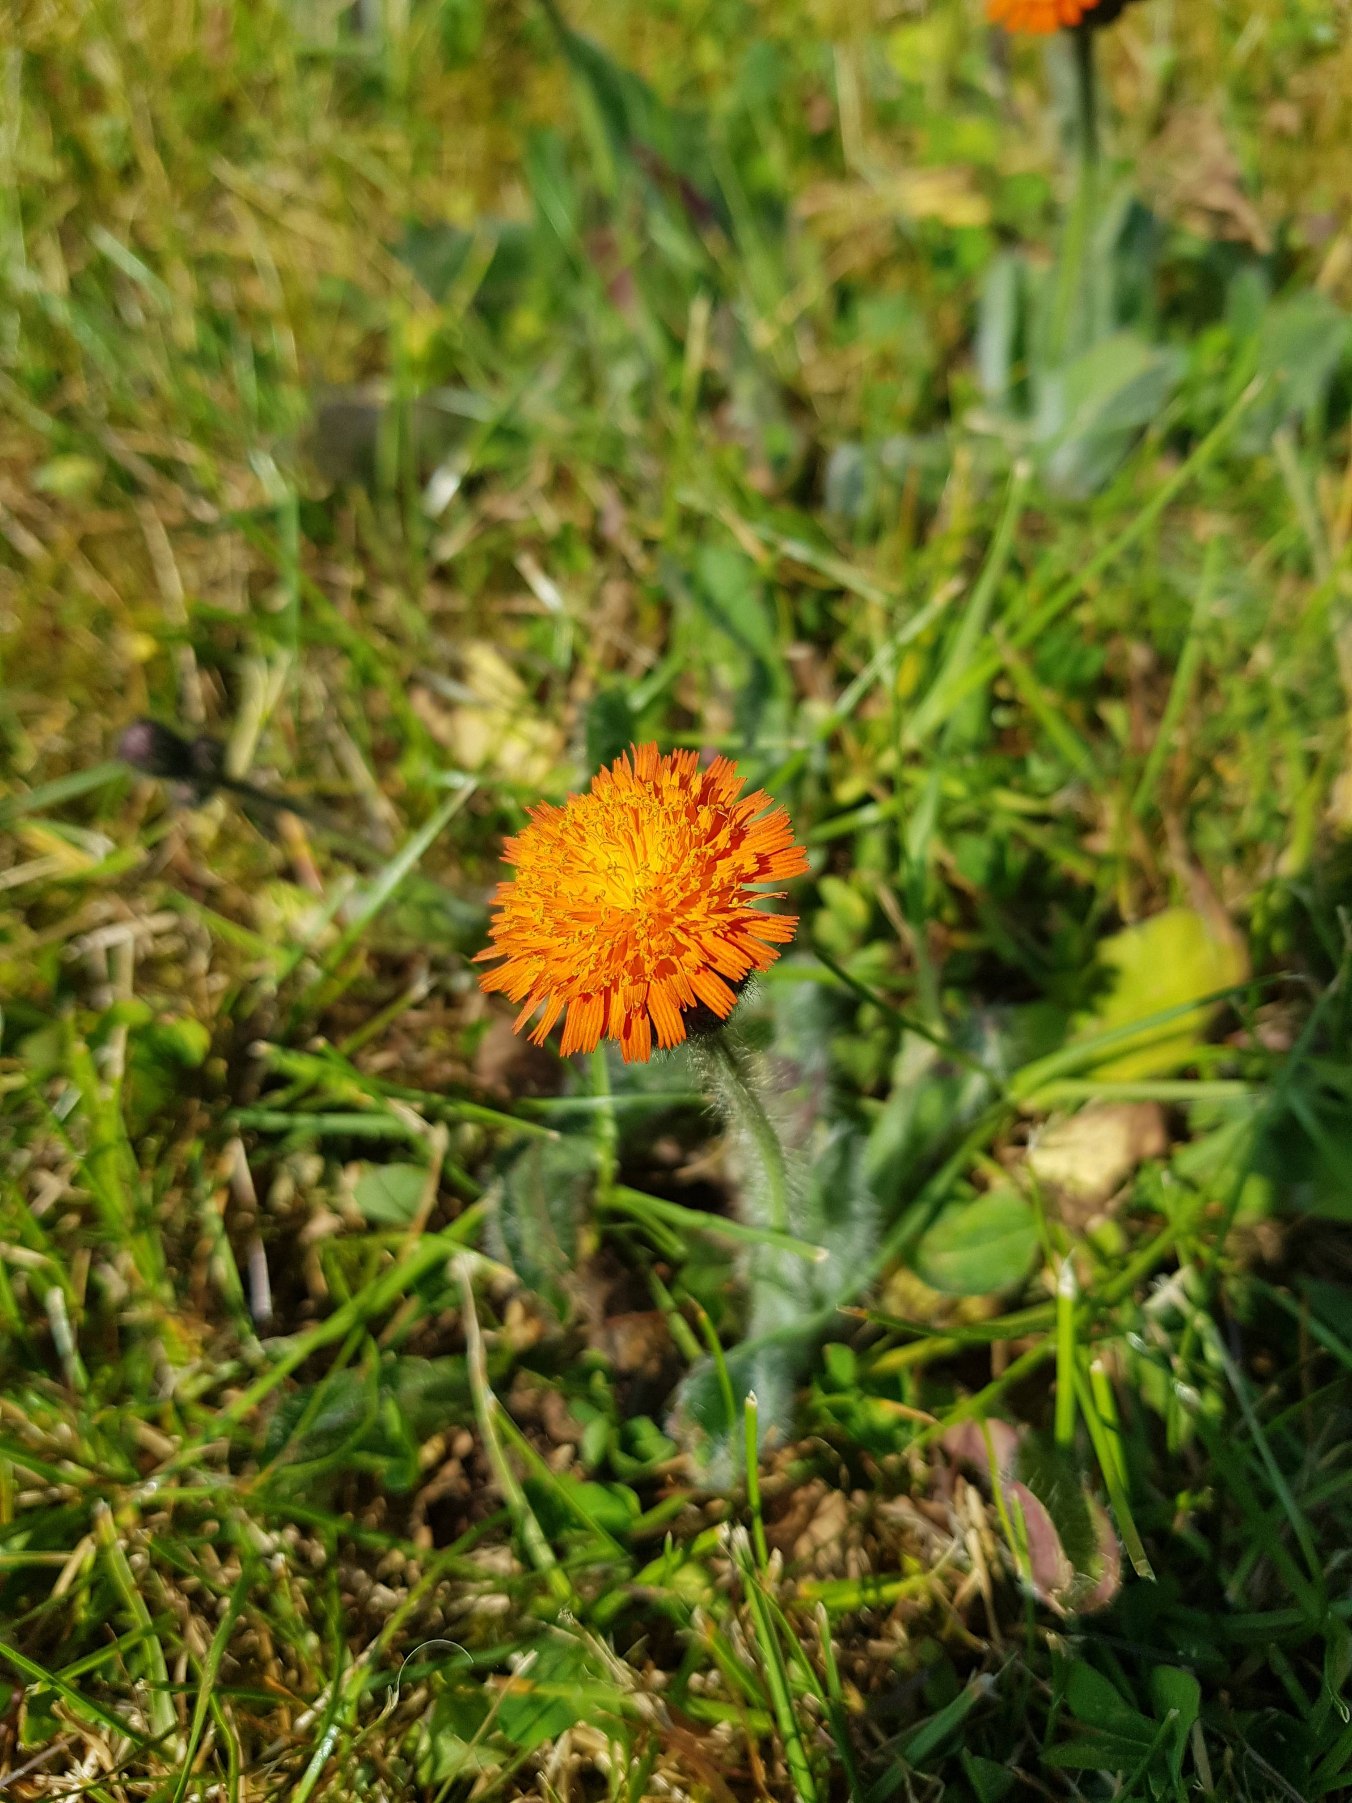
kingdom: Plantae
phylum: Tracheophyta
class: Magnoliopsida
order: Asterales
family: Asteraceae
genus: Pilosella
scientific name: Pilosella aurantiaca
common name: Pomerans-høgeurt
